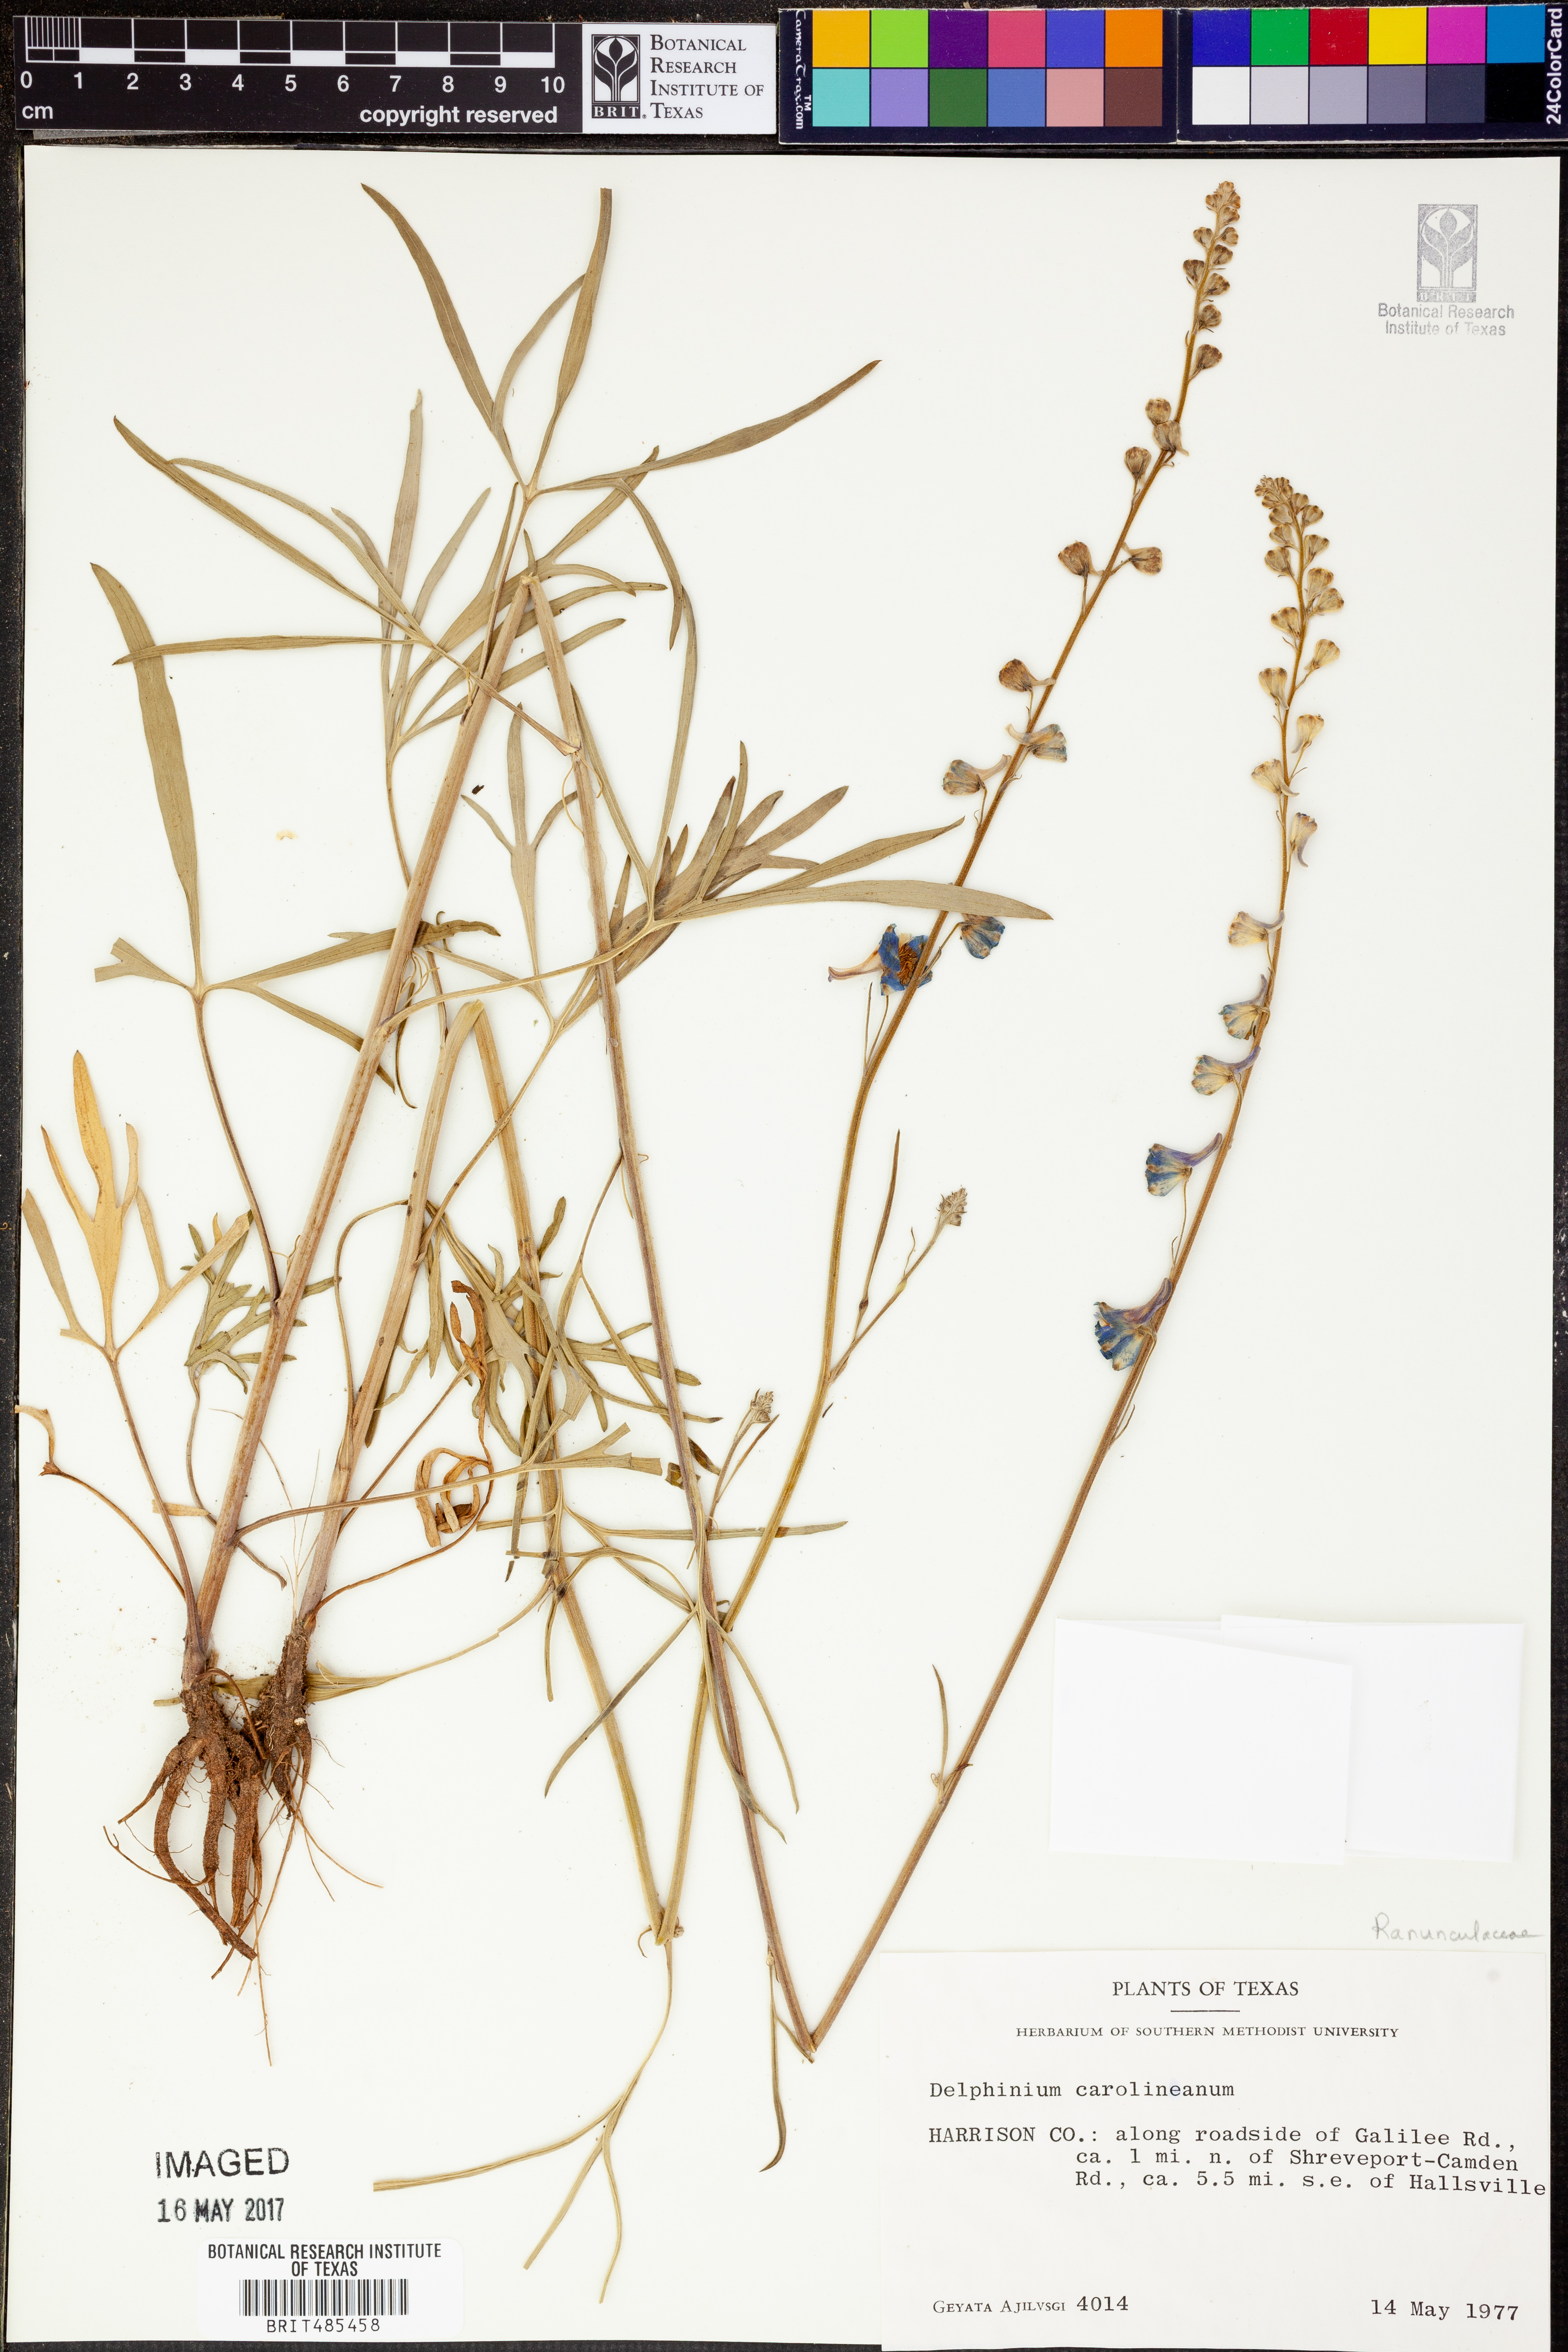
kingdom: Plantae
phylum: Tracheophyta
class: Magnoliopsida
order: Ranunculales
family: Ranunculaceae
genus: Delphinium
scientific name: Delphinium carolinianum
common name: Carolina larkspur
